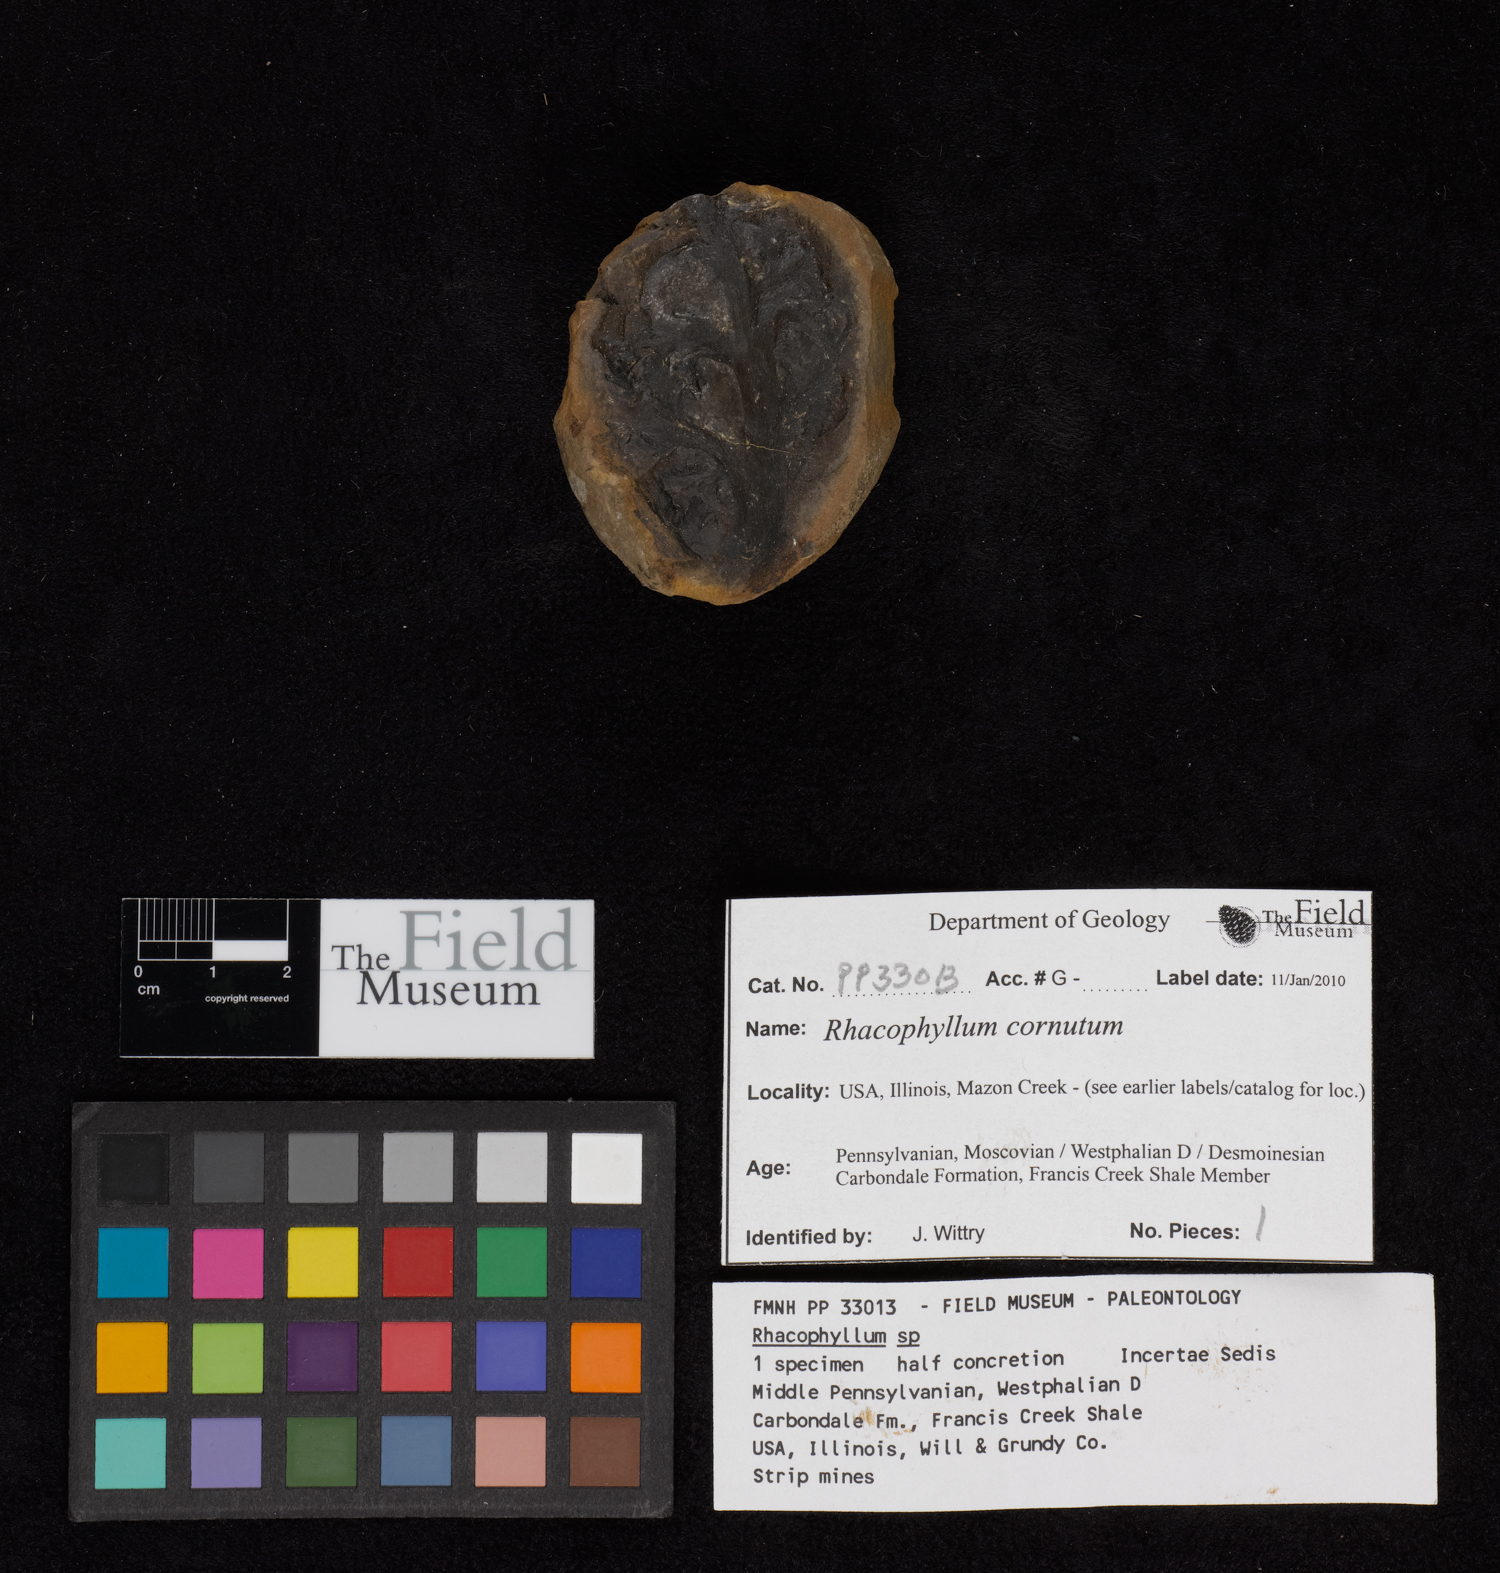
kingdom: Plantae
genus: Rhacophyllum
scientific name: Rhacophyllum
